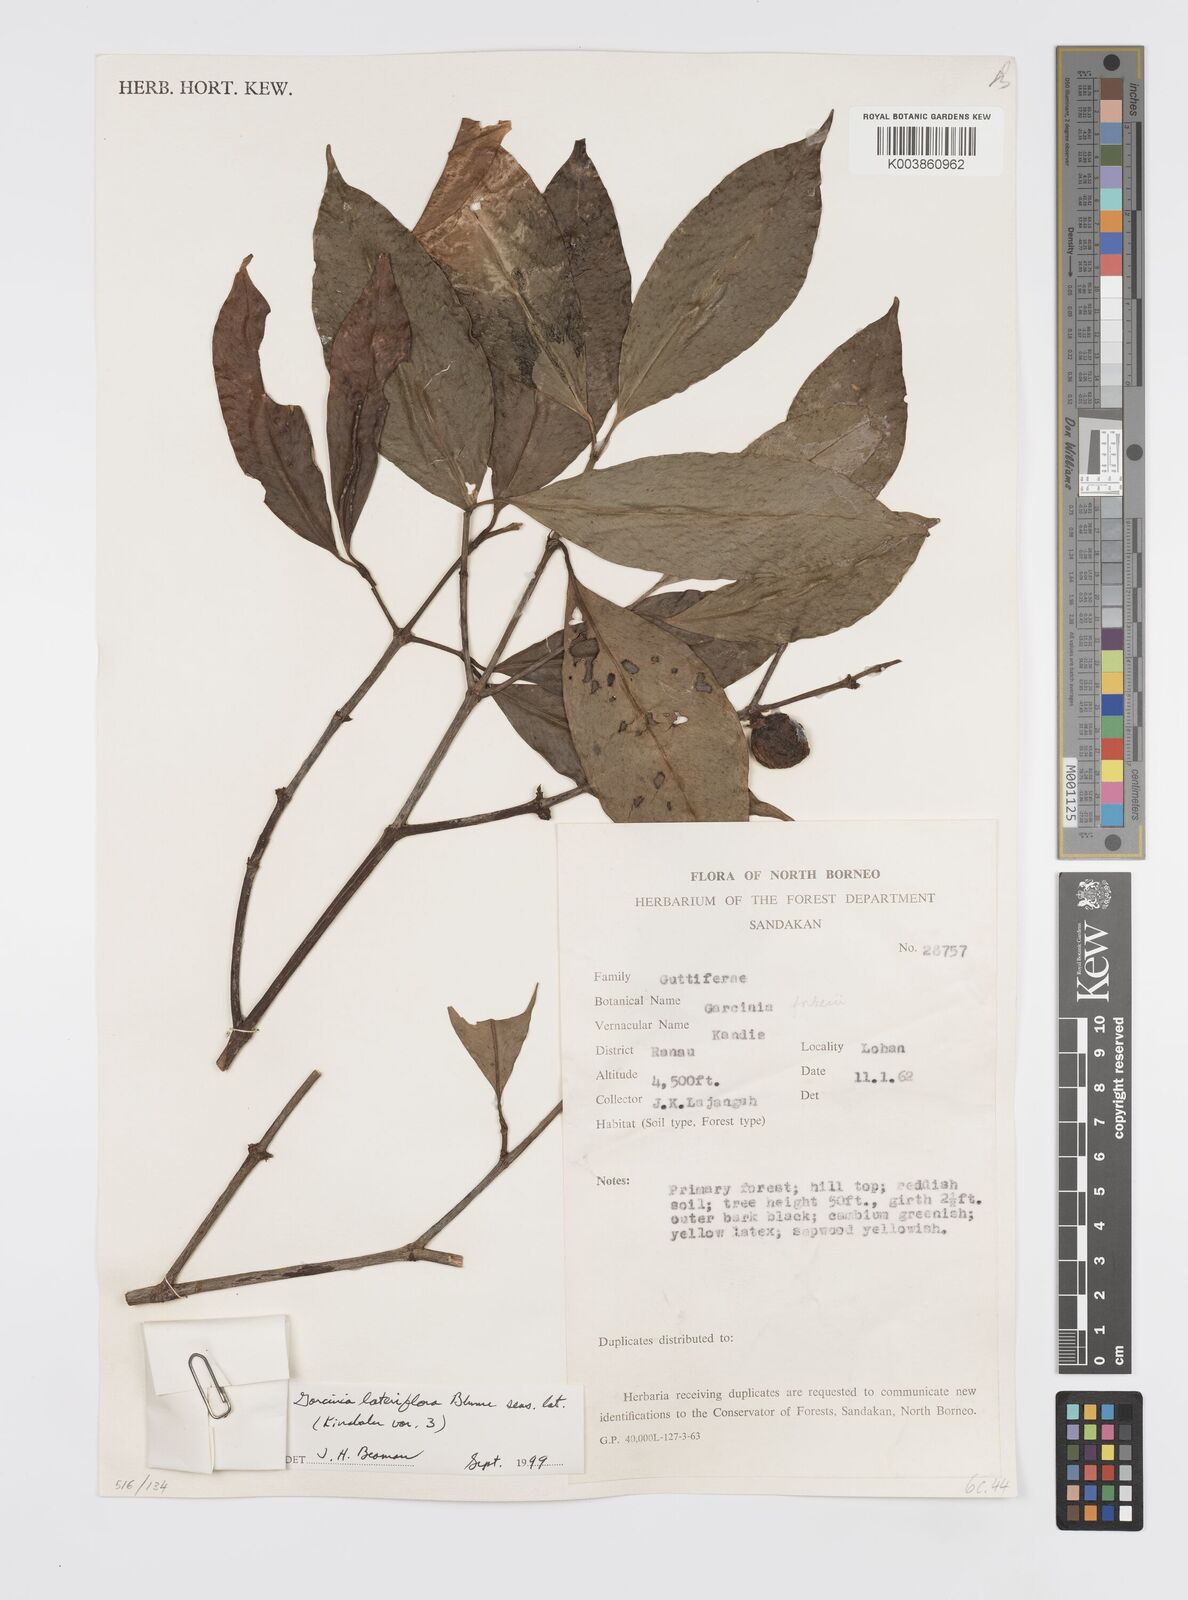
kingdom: Plantae
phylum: Tracheophyta
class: Magnoliopsida
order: Malpighiales
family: Clusiaceae
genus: Garcinia
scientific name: Garcinia lateriflora
